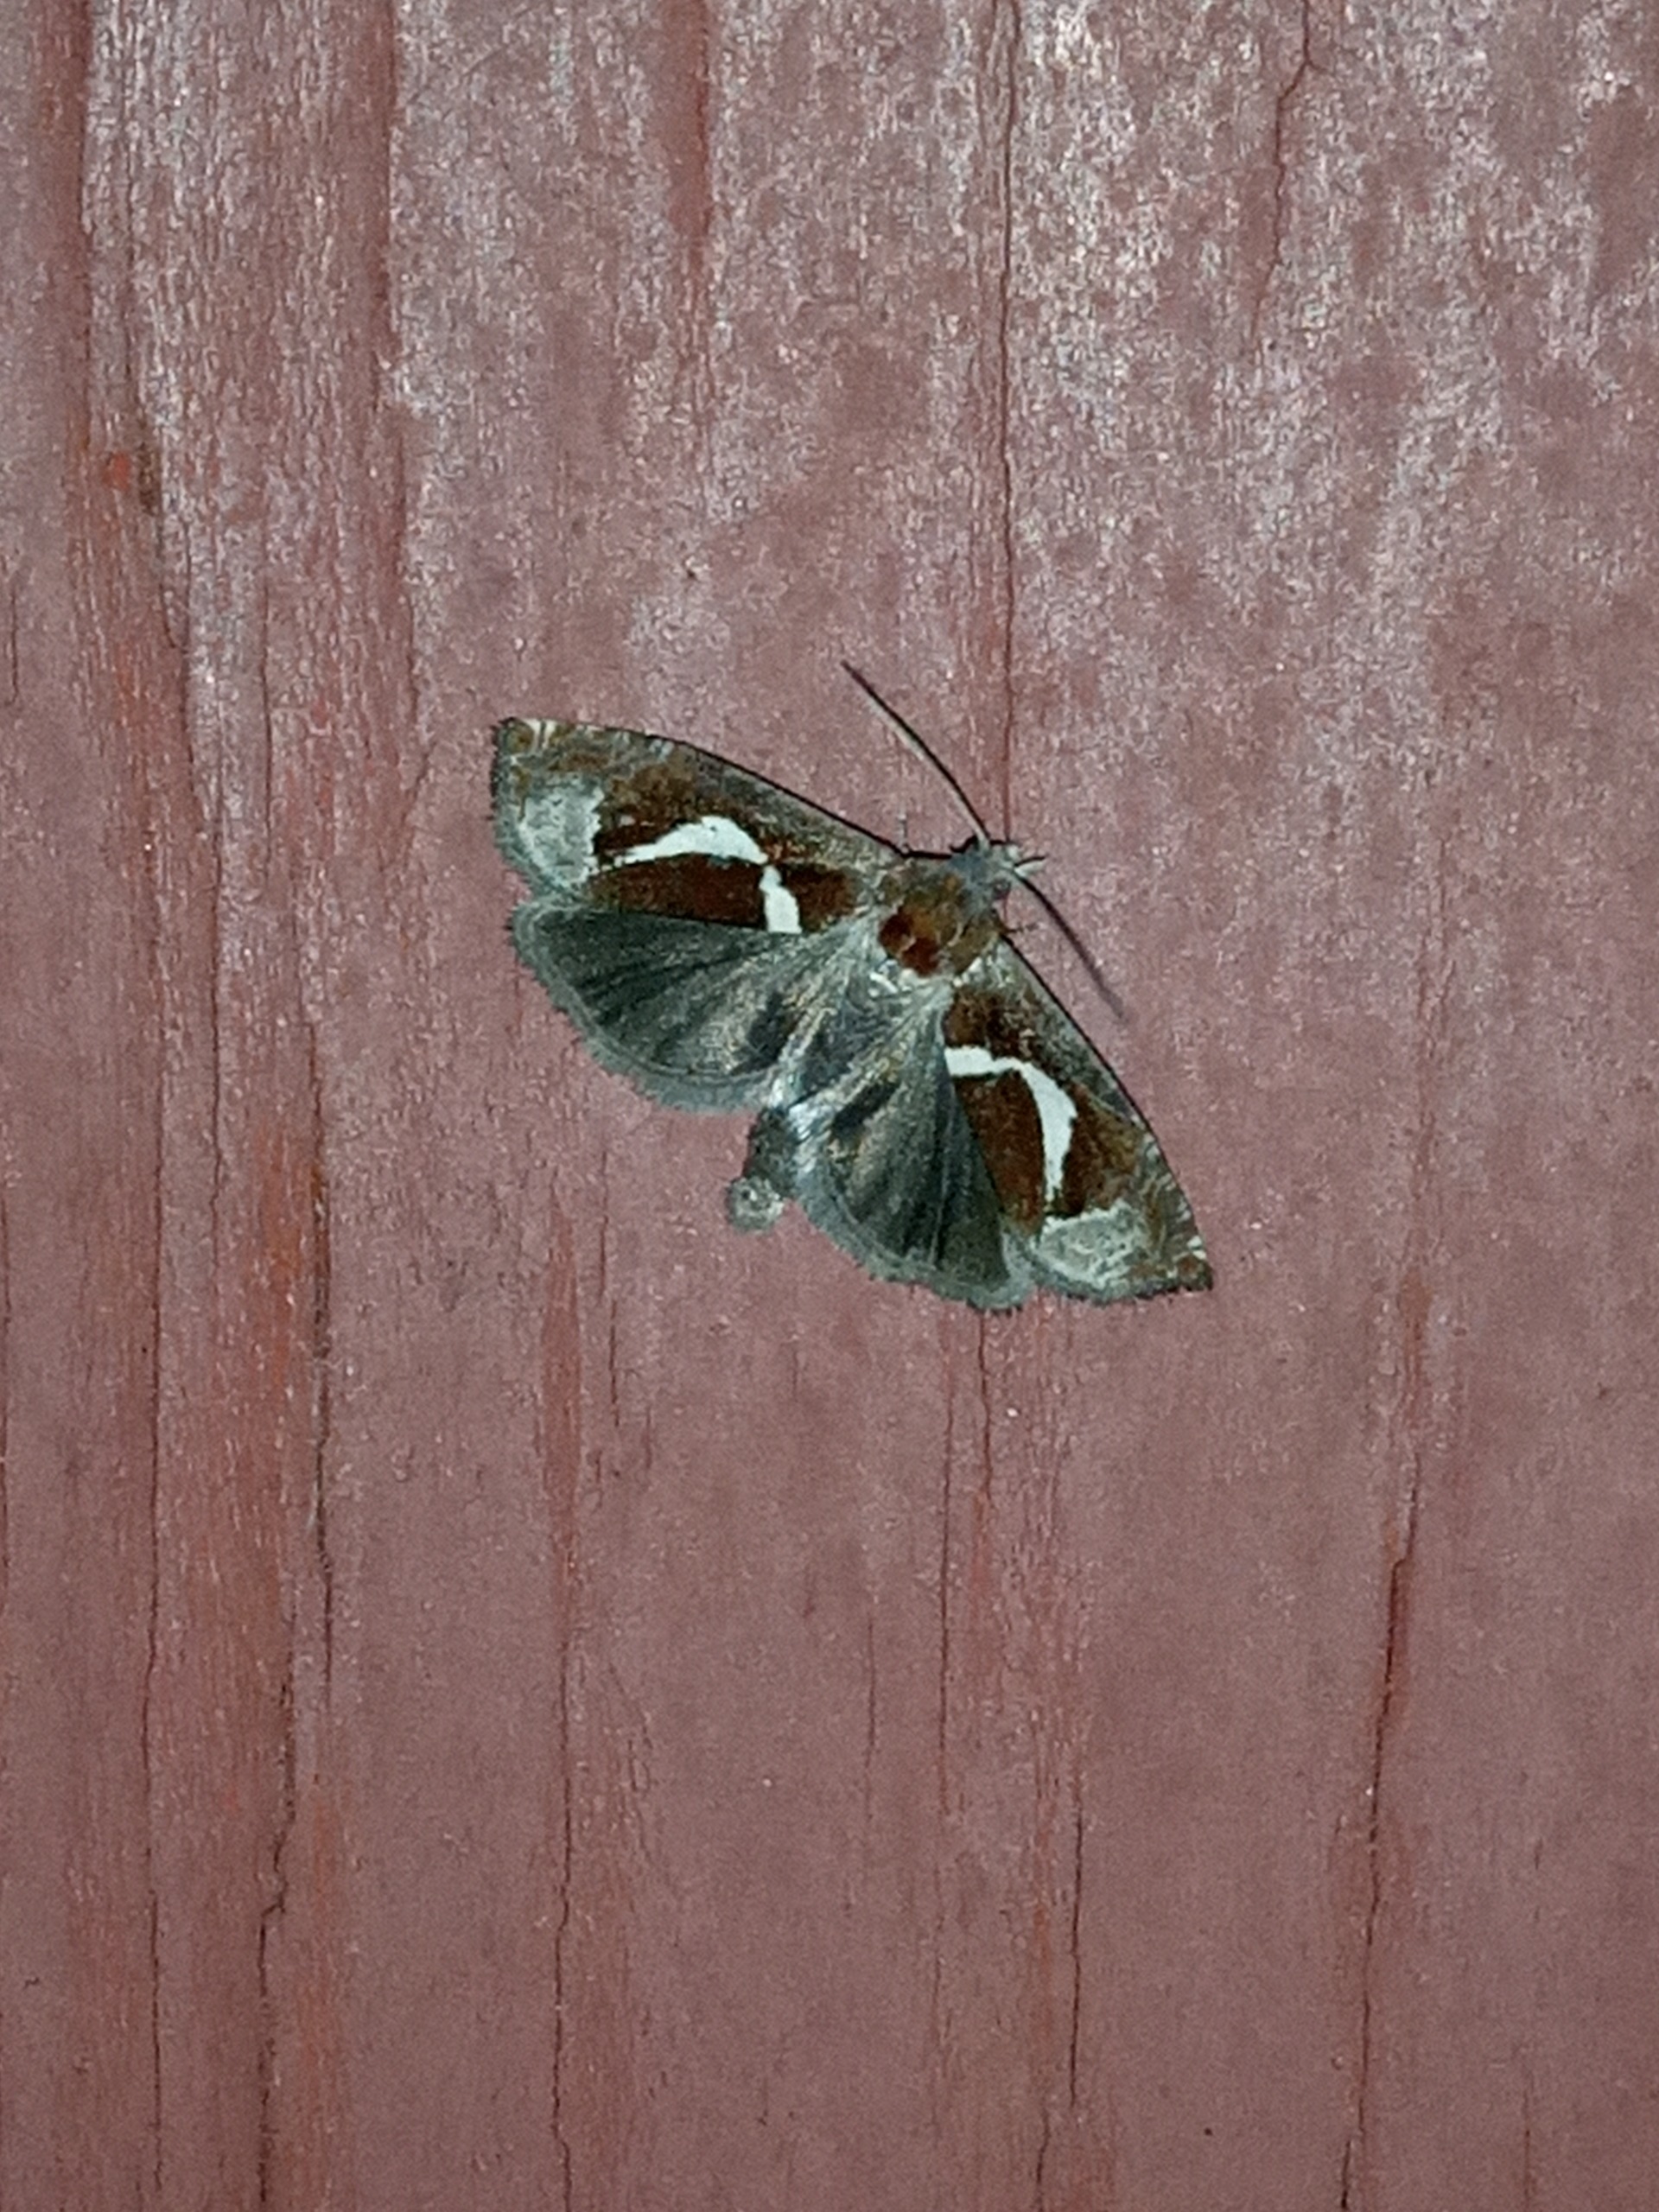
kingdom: Animalia
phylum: Arthropoda
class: Insecta
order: Lepidoptera
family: Tortricidae
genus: Epiblema
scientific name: Epiblema foenella
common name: Gråbynkegallevikler
